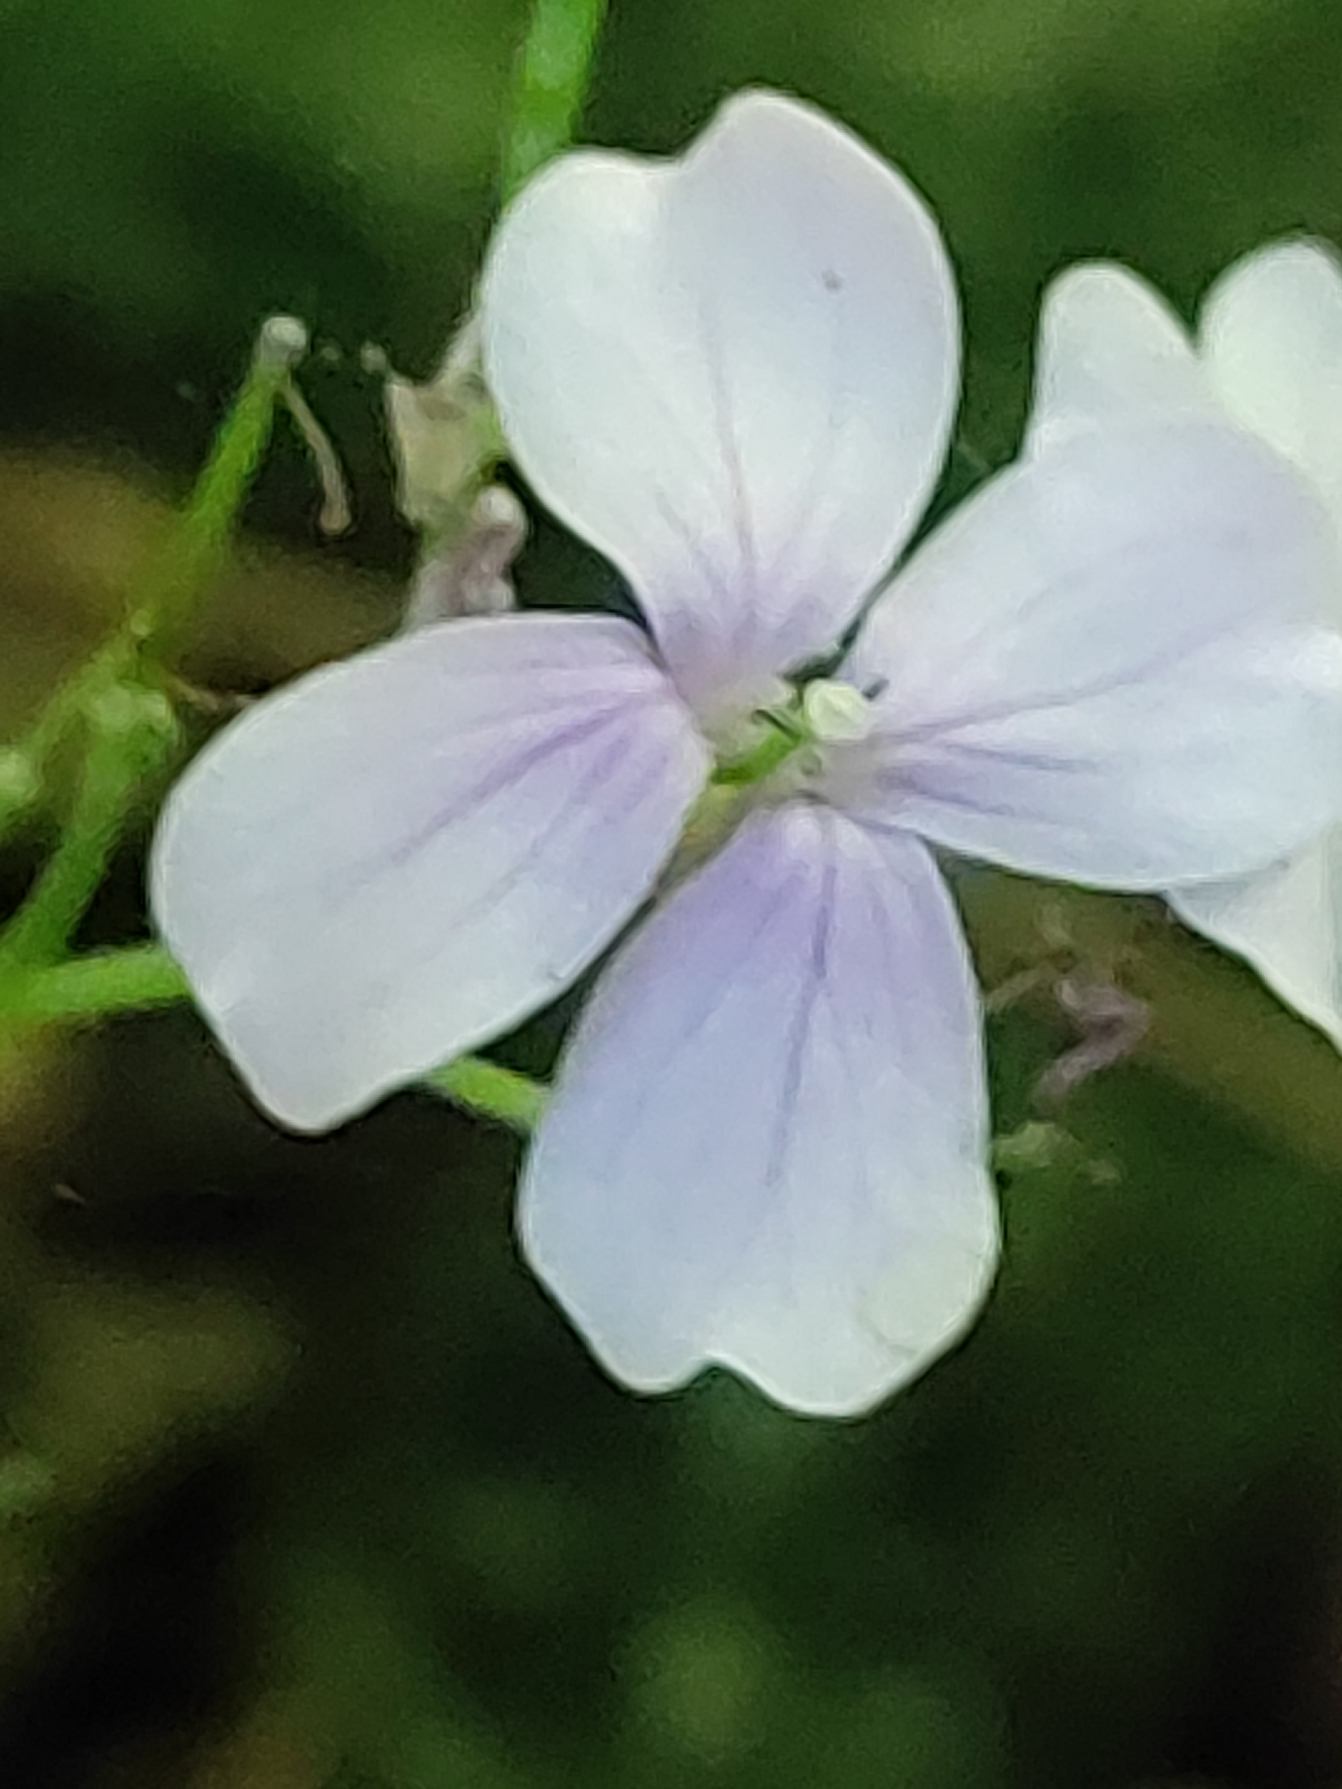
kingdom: Plantae
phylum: Tracheophyta
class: Magnoliopsida
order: Brassicales
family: Brassicaceae
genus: Lunaria
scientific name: Lunaria rediviva
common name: Vedvarende måneskulpe
